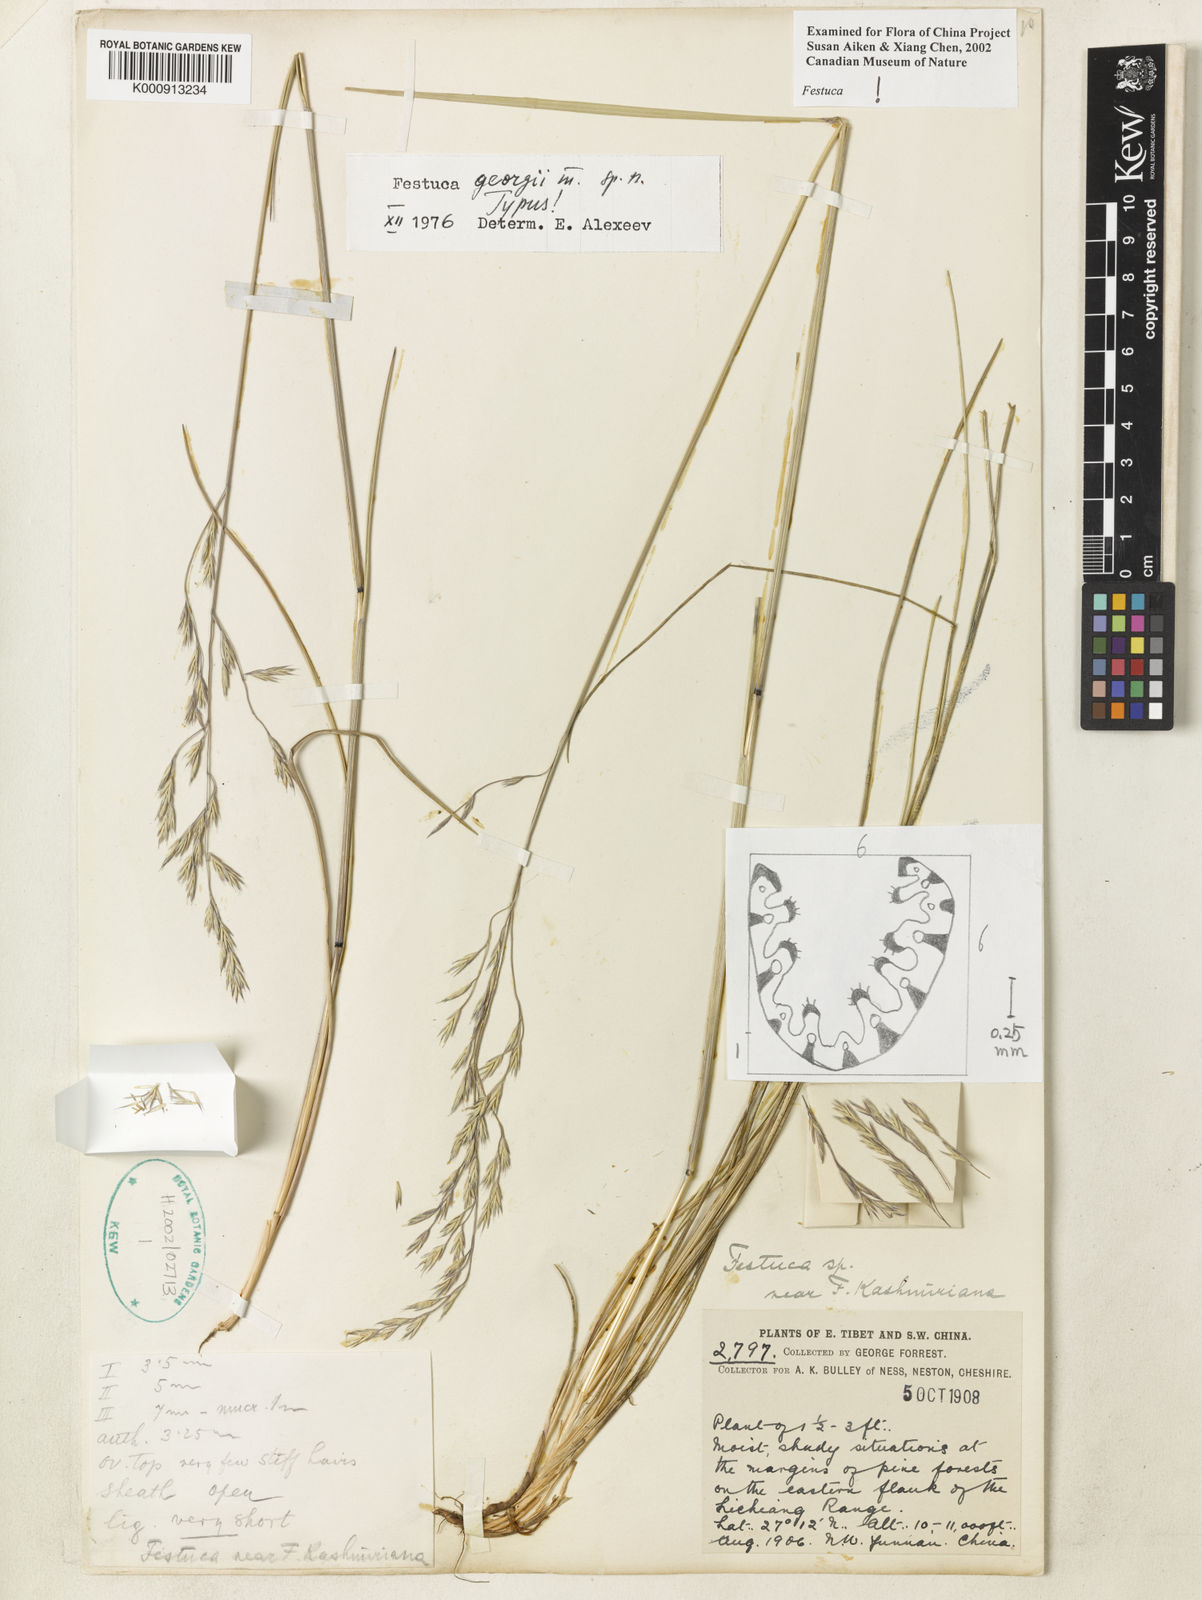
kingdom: Plantae
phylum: Tracheophyta
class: Liliopsida
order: Poales
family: Poaceae
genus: Festuca
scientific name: Festuca georgii
